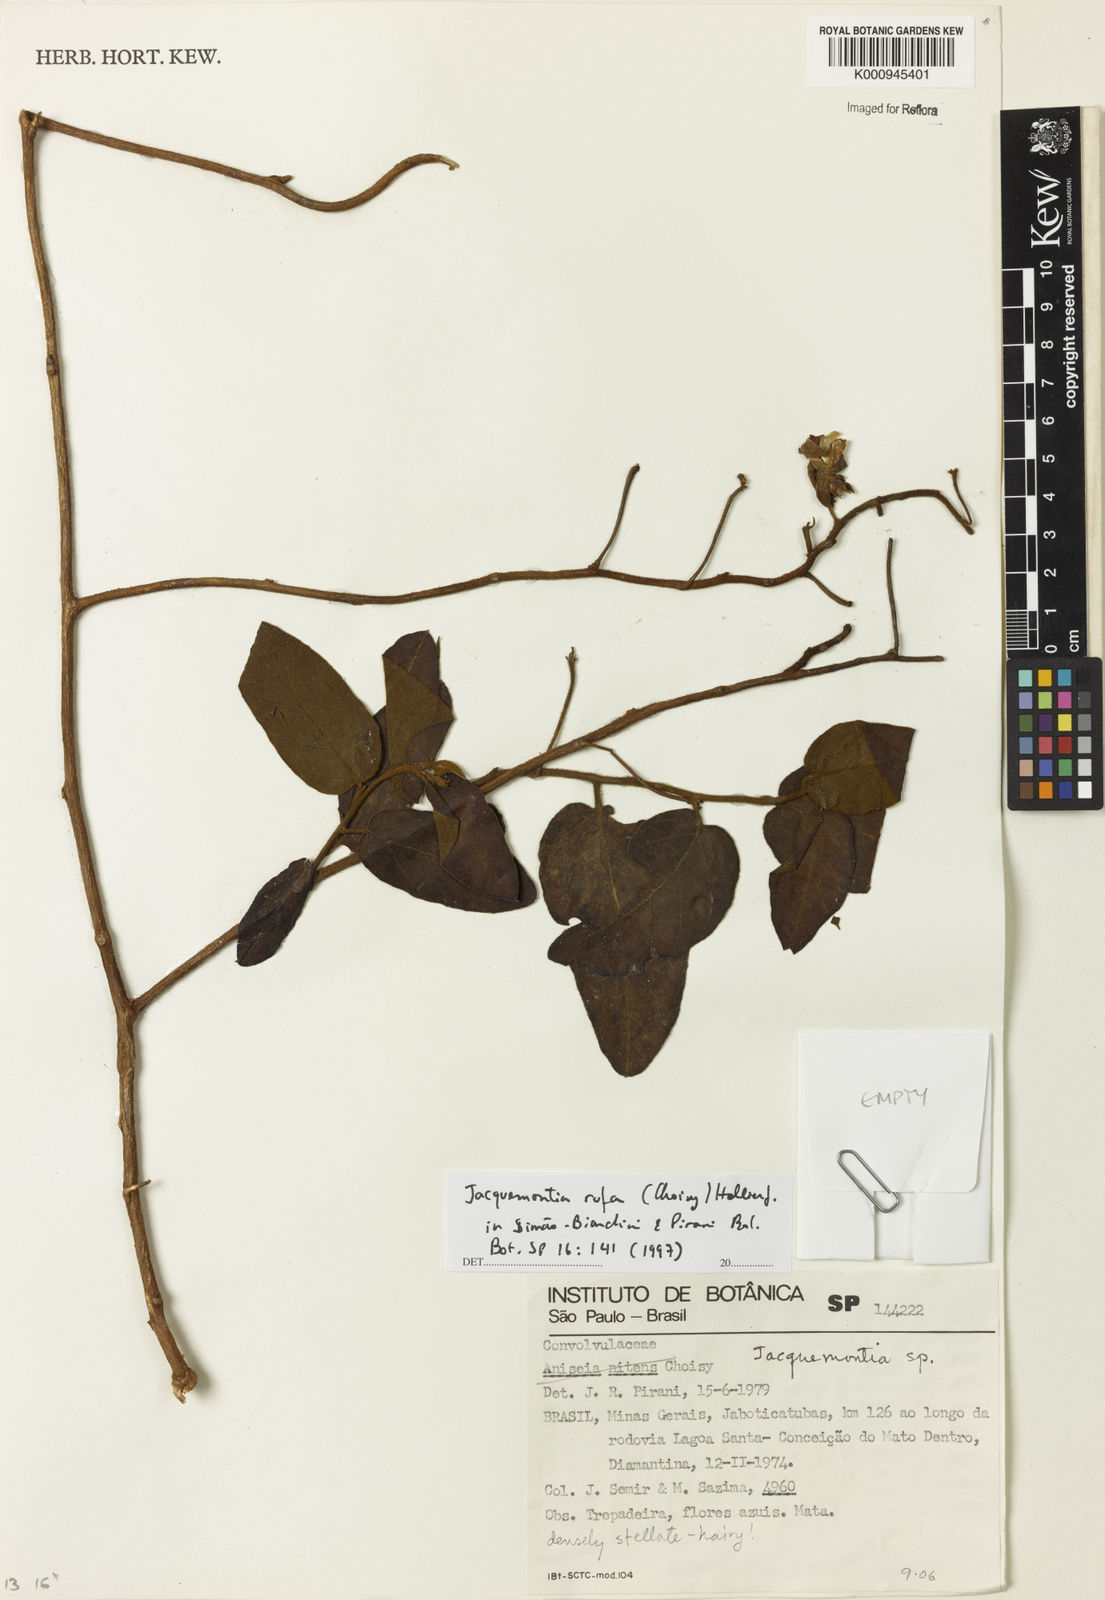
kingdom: Plantae
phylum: Tracheophyta
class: Magnoliopsida
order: Solanales
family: Convolvulaceae
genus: Jacquemontia
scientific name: Jacquemontia rufa
